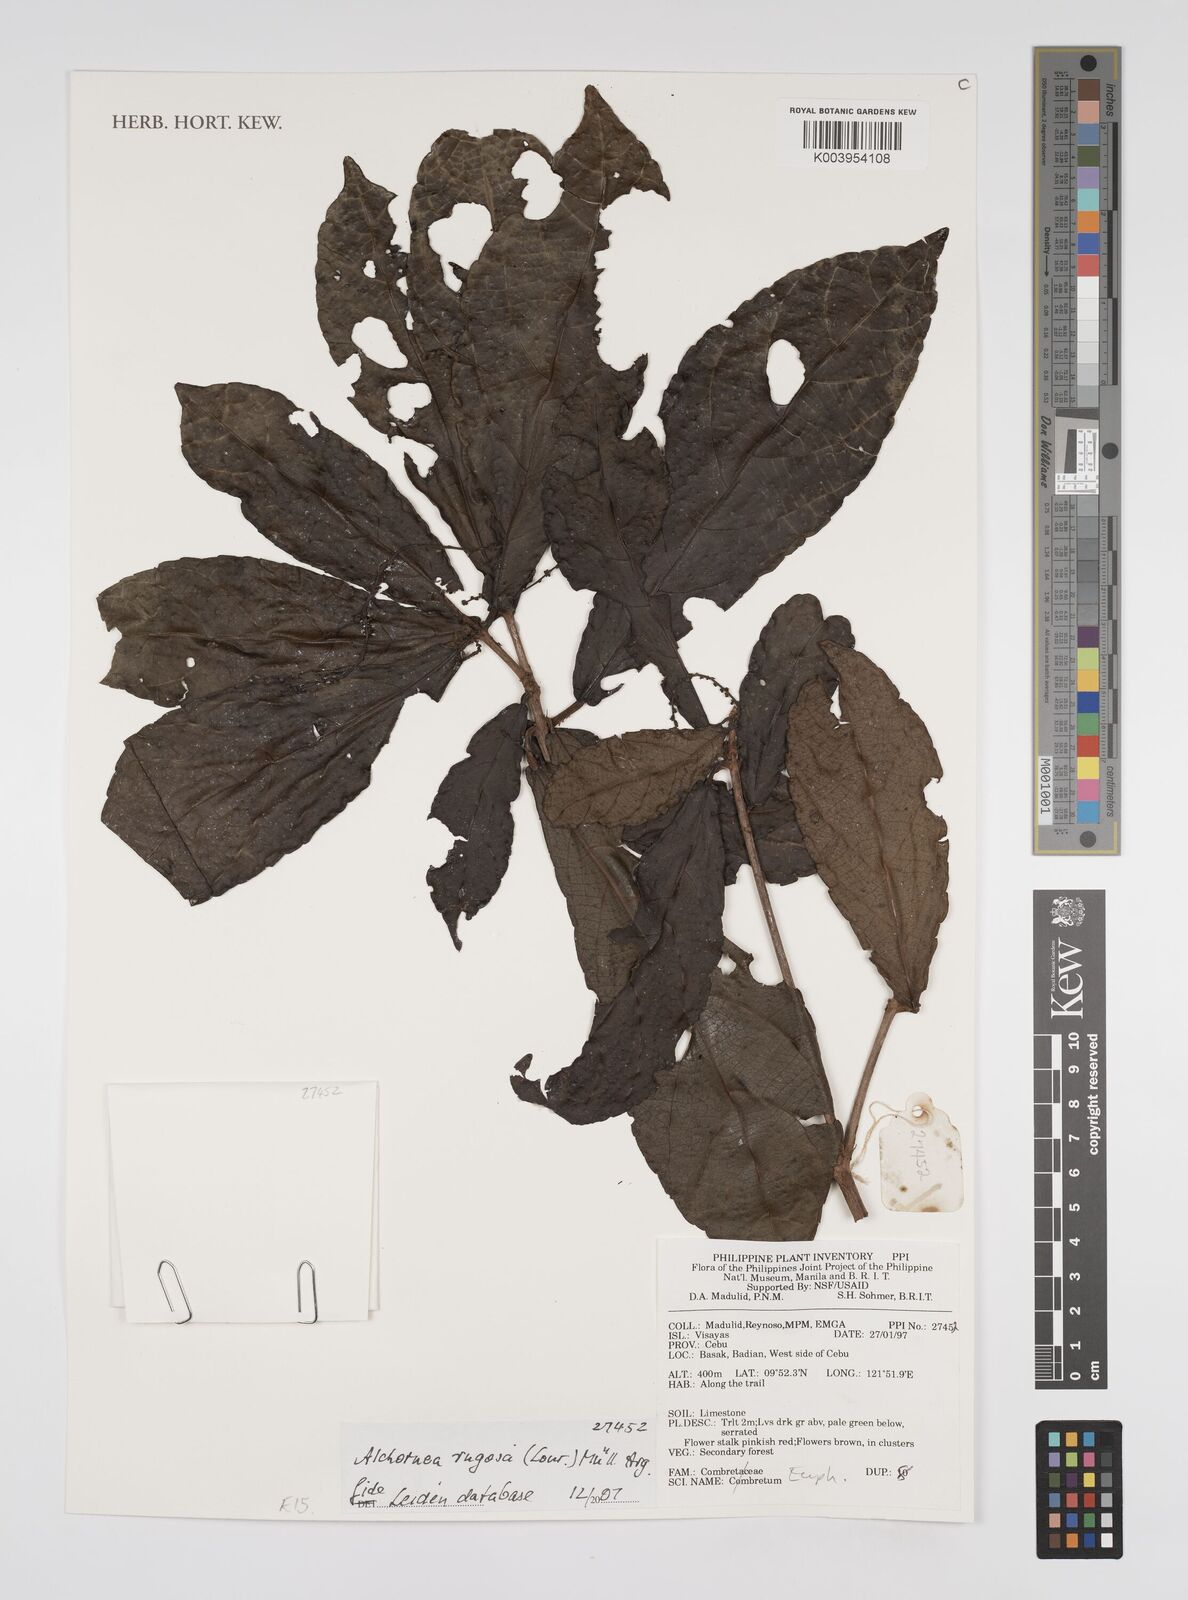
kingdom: Plantae
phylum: Tracheophyta
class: Magnoliopsida
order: Malpighiales
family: Euphorbiaceae
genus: Alchornea
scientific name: Alchornea rugosa
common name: Alchorntree
